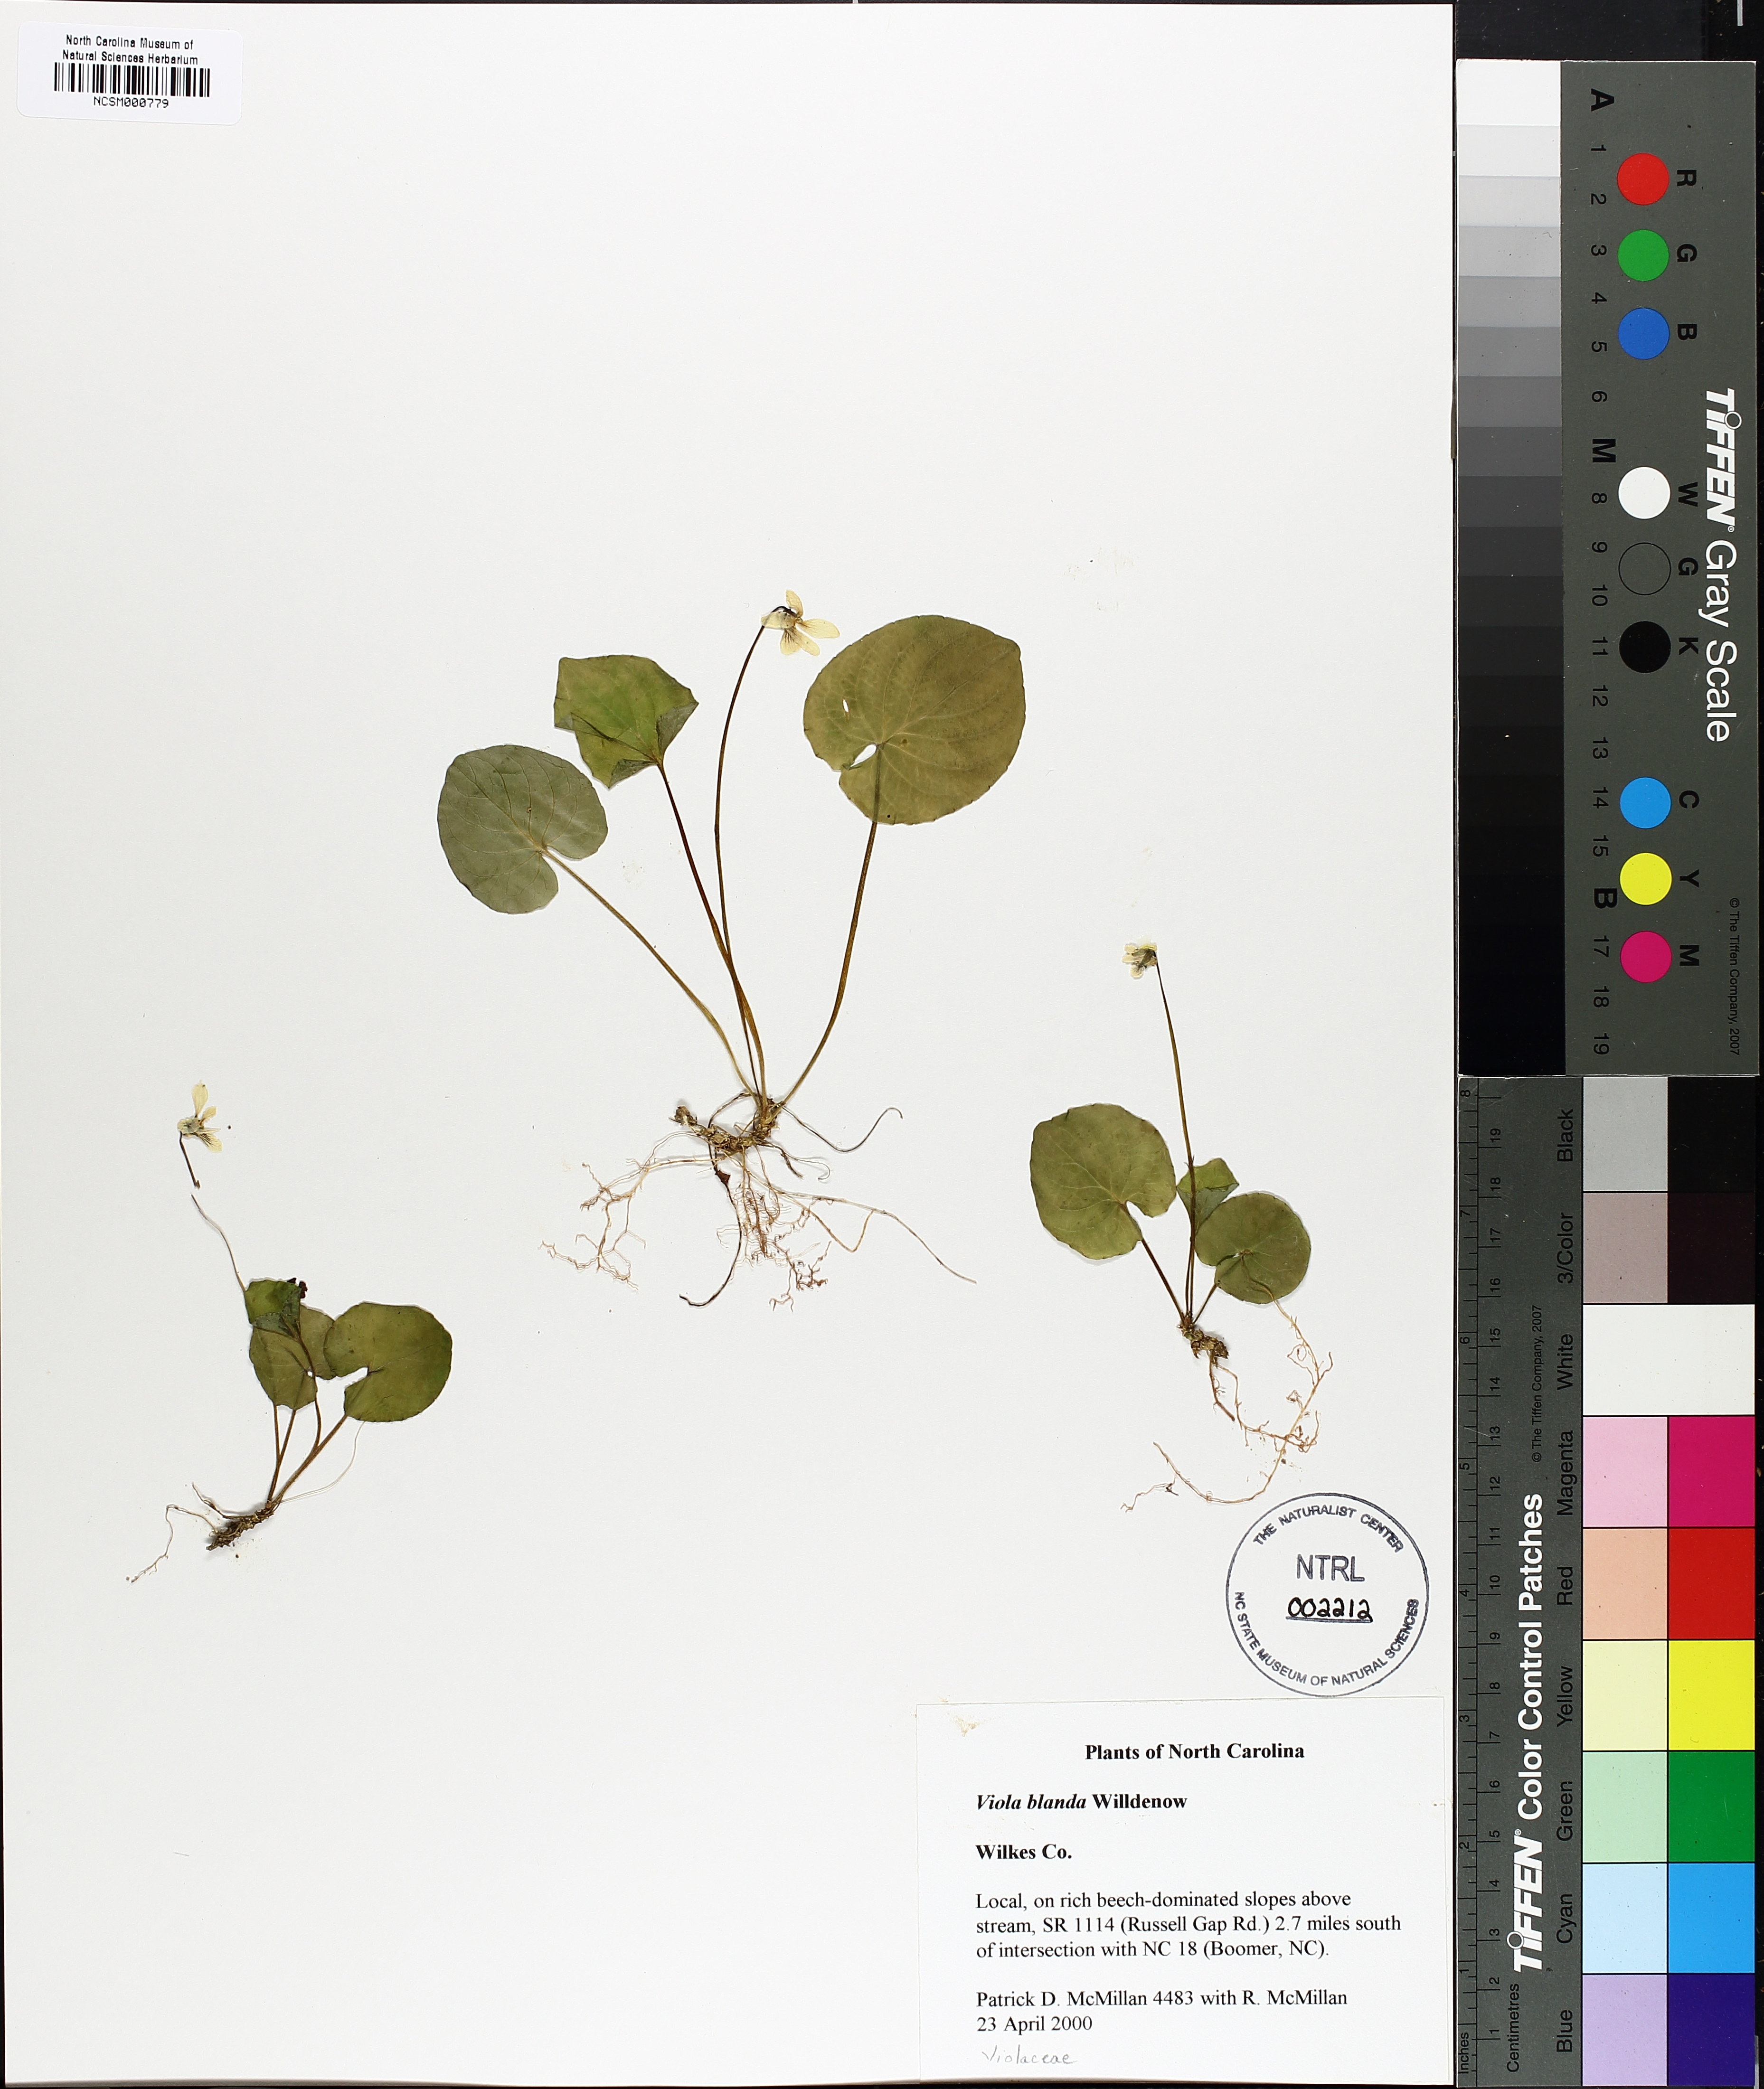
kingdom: Plantae
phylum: Tracheophyta
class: Magnoliopsida
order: Malpighiales
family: Violaceae
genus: Viola
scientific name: Viola blanda
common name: Sweet white violet
